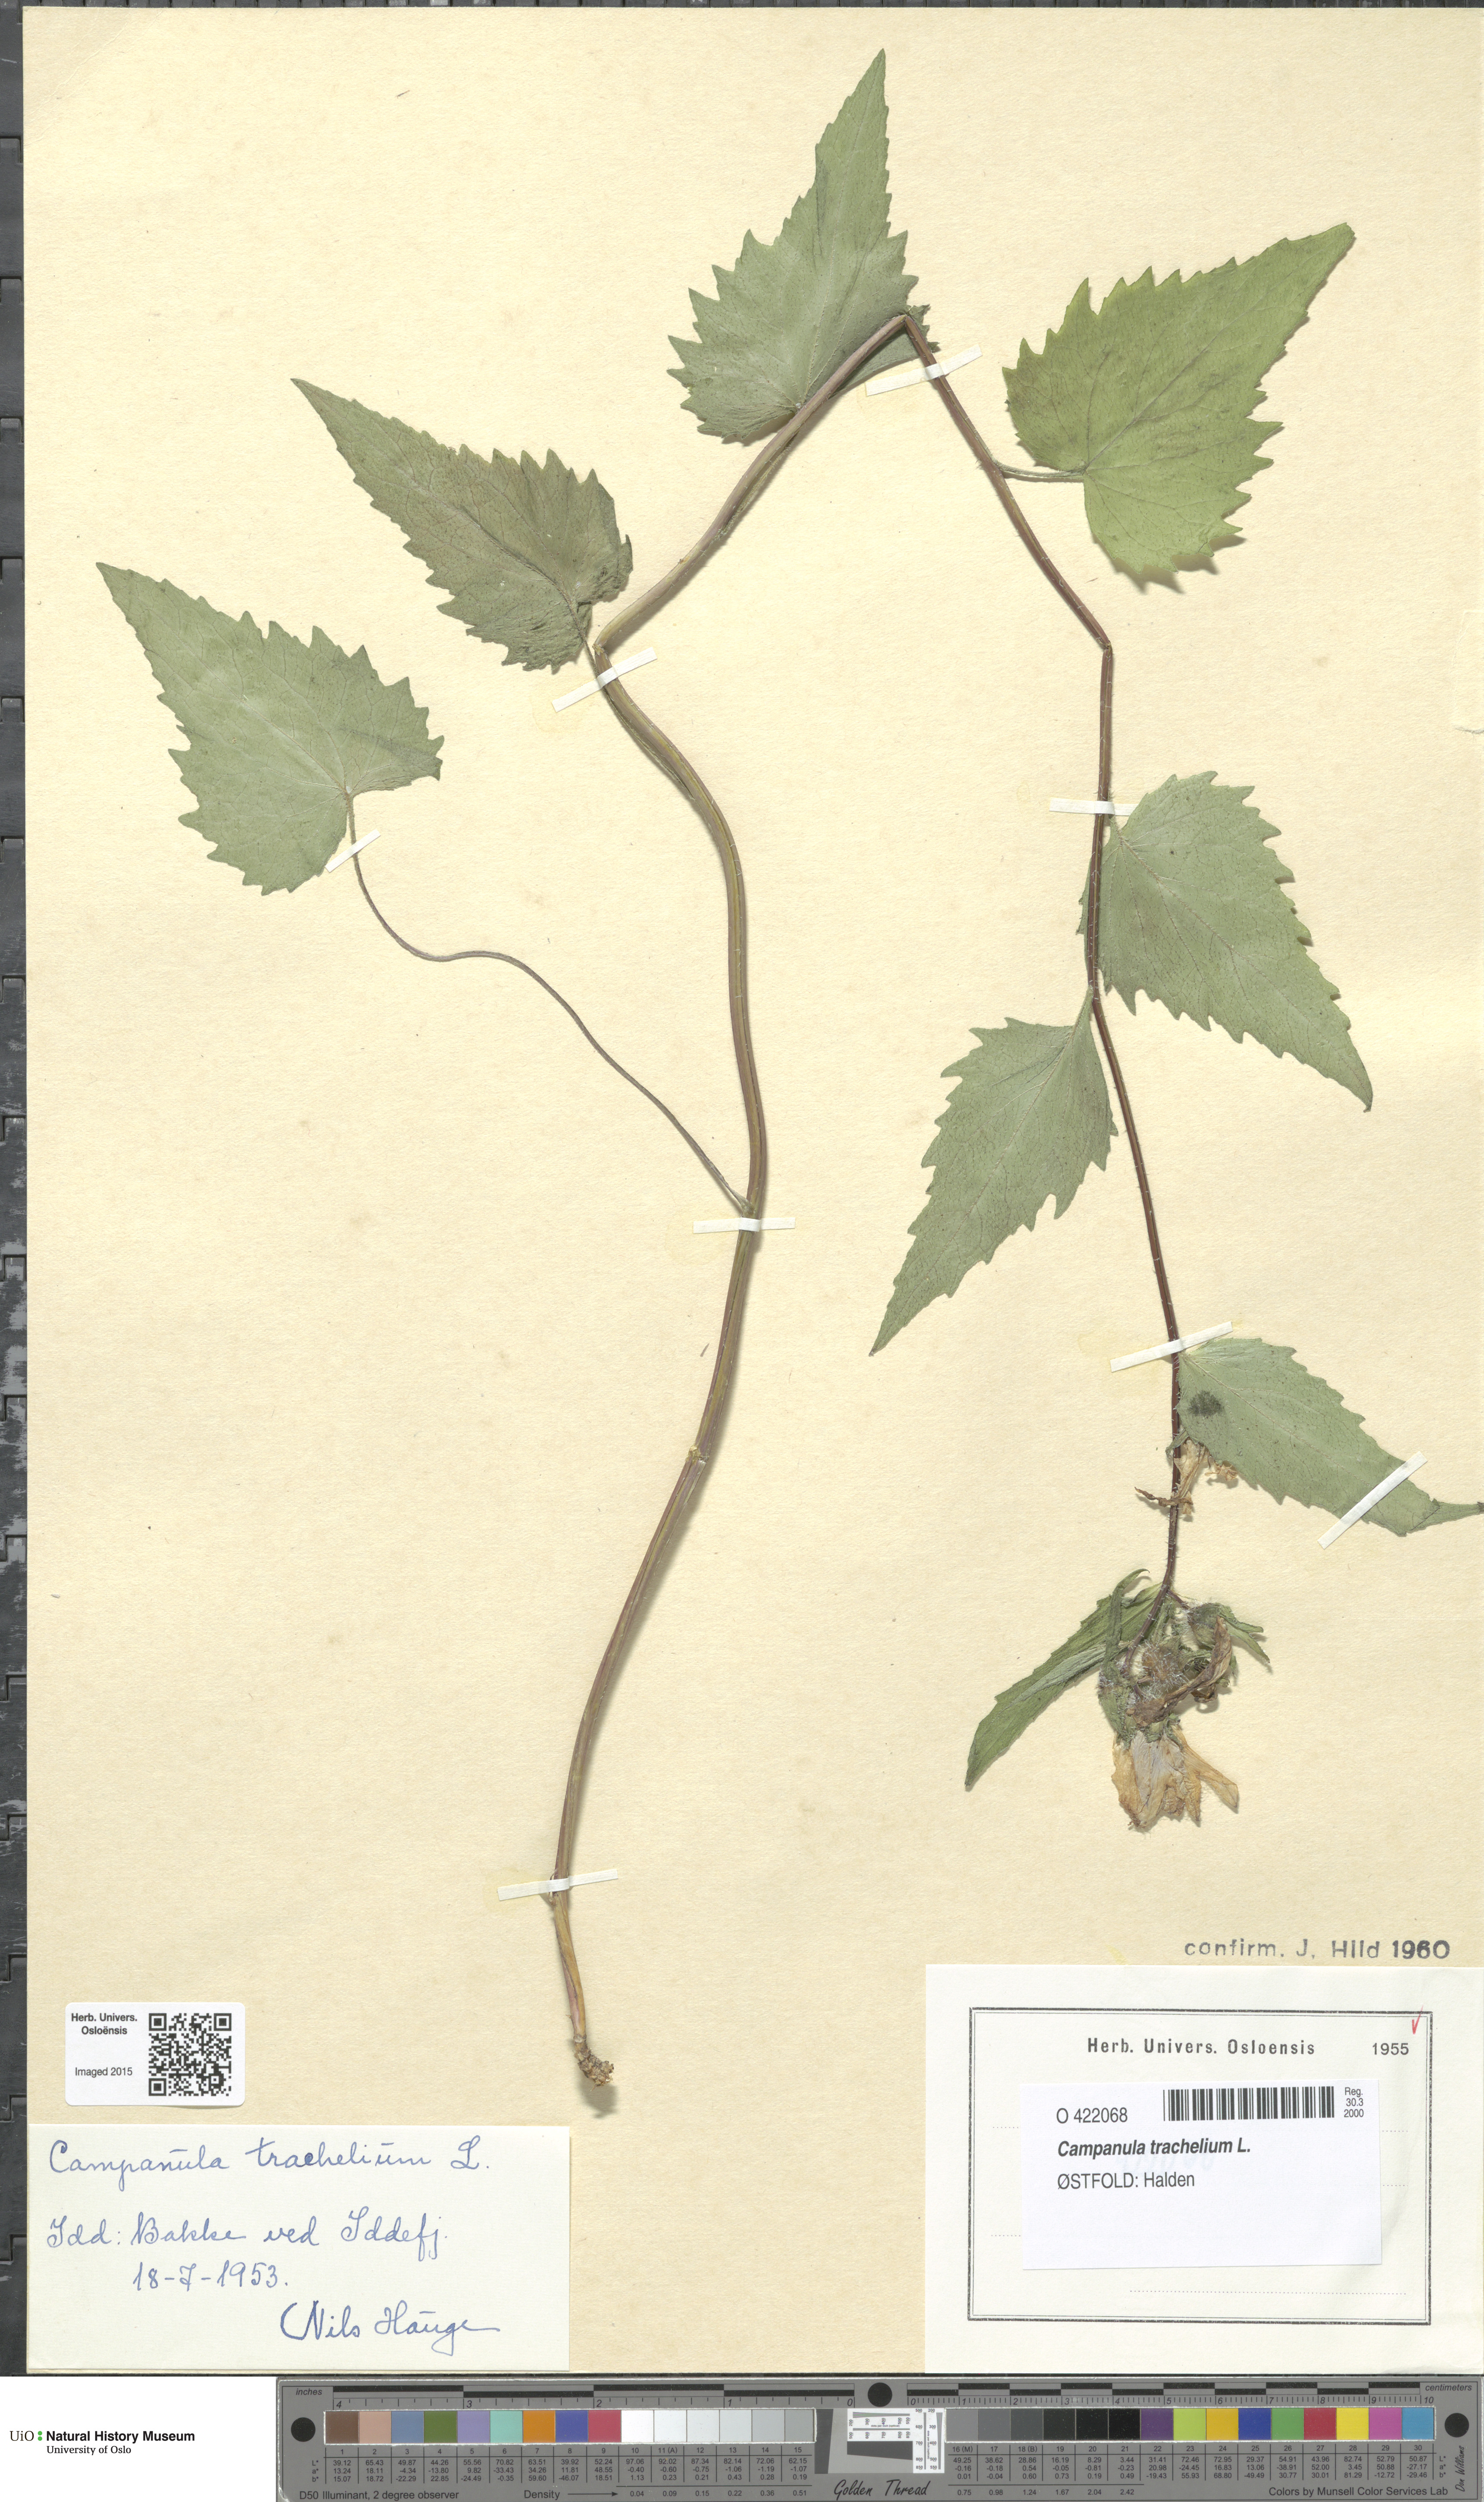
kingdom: Plantae
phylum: Tracheophyta
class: Magnoliopsida
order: Asterales
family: Campanulaceae
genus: Campanula
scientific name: Campanula trachelium
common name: Nettle-leaved bellflower
